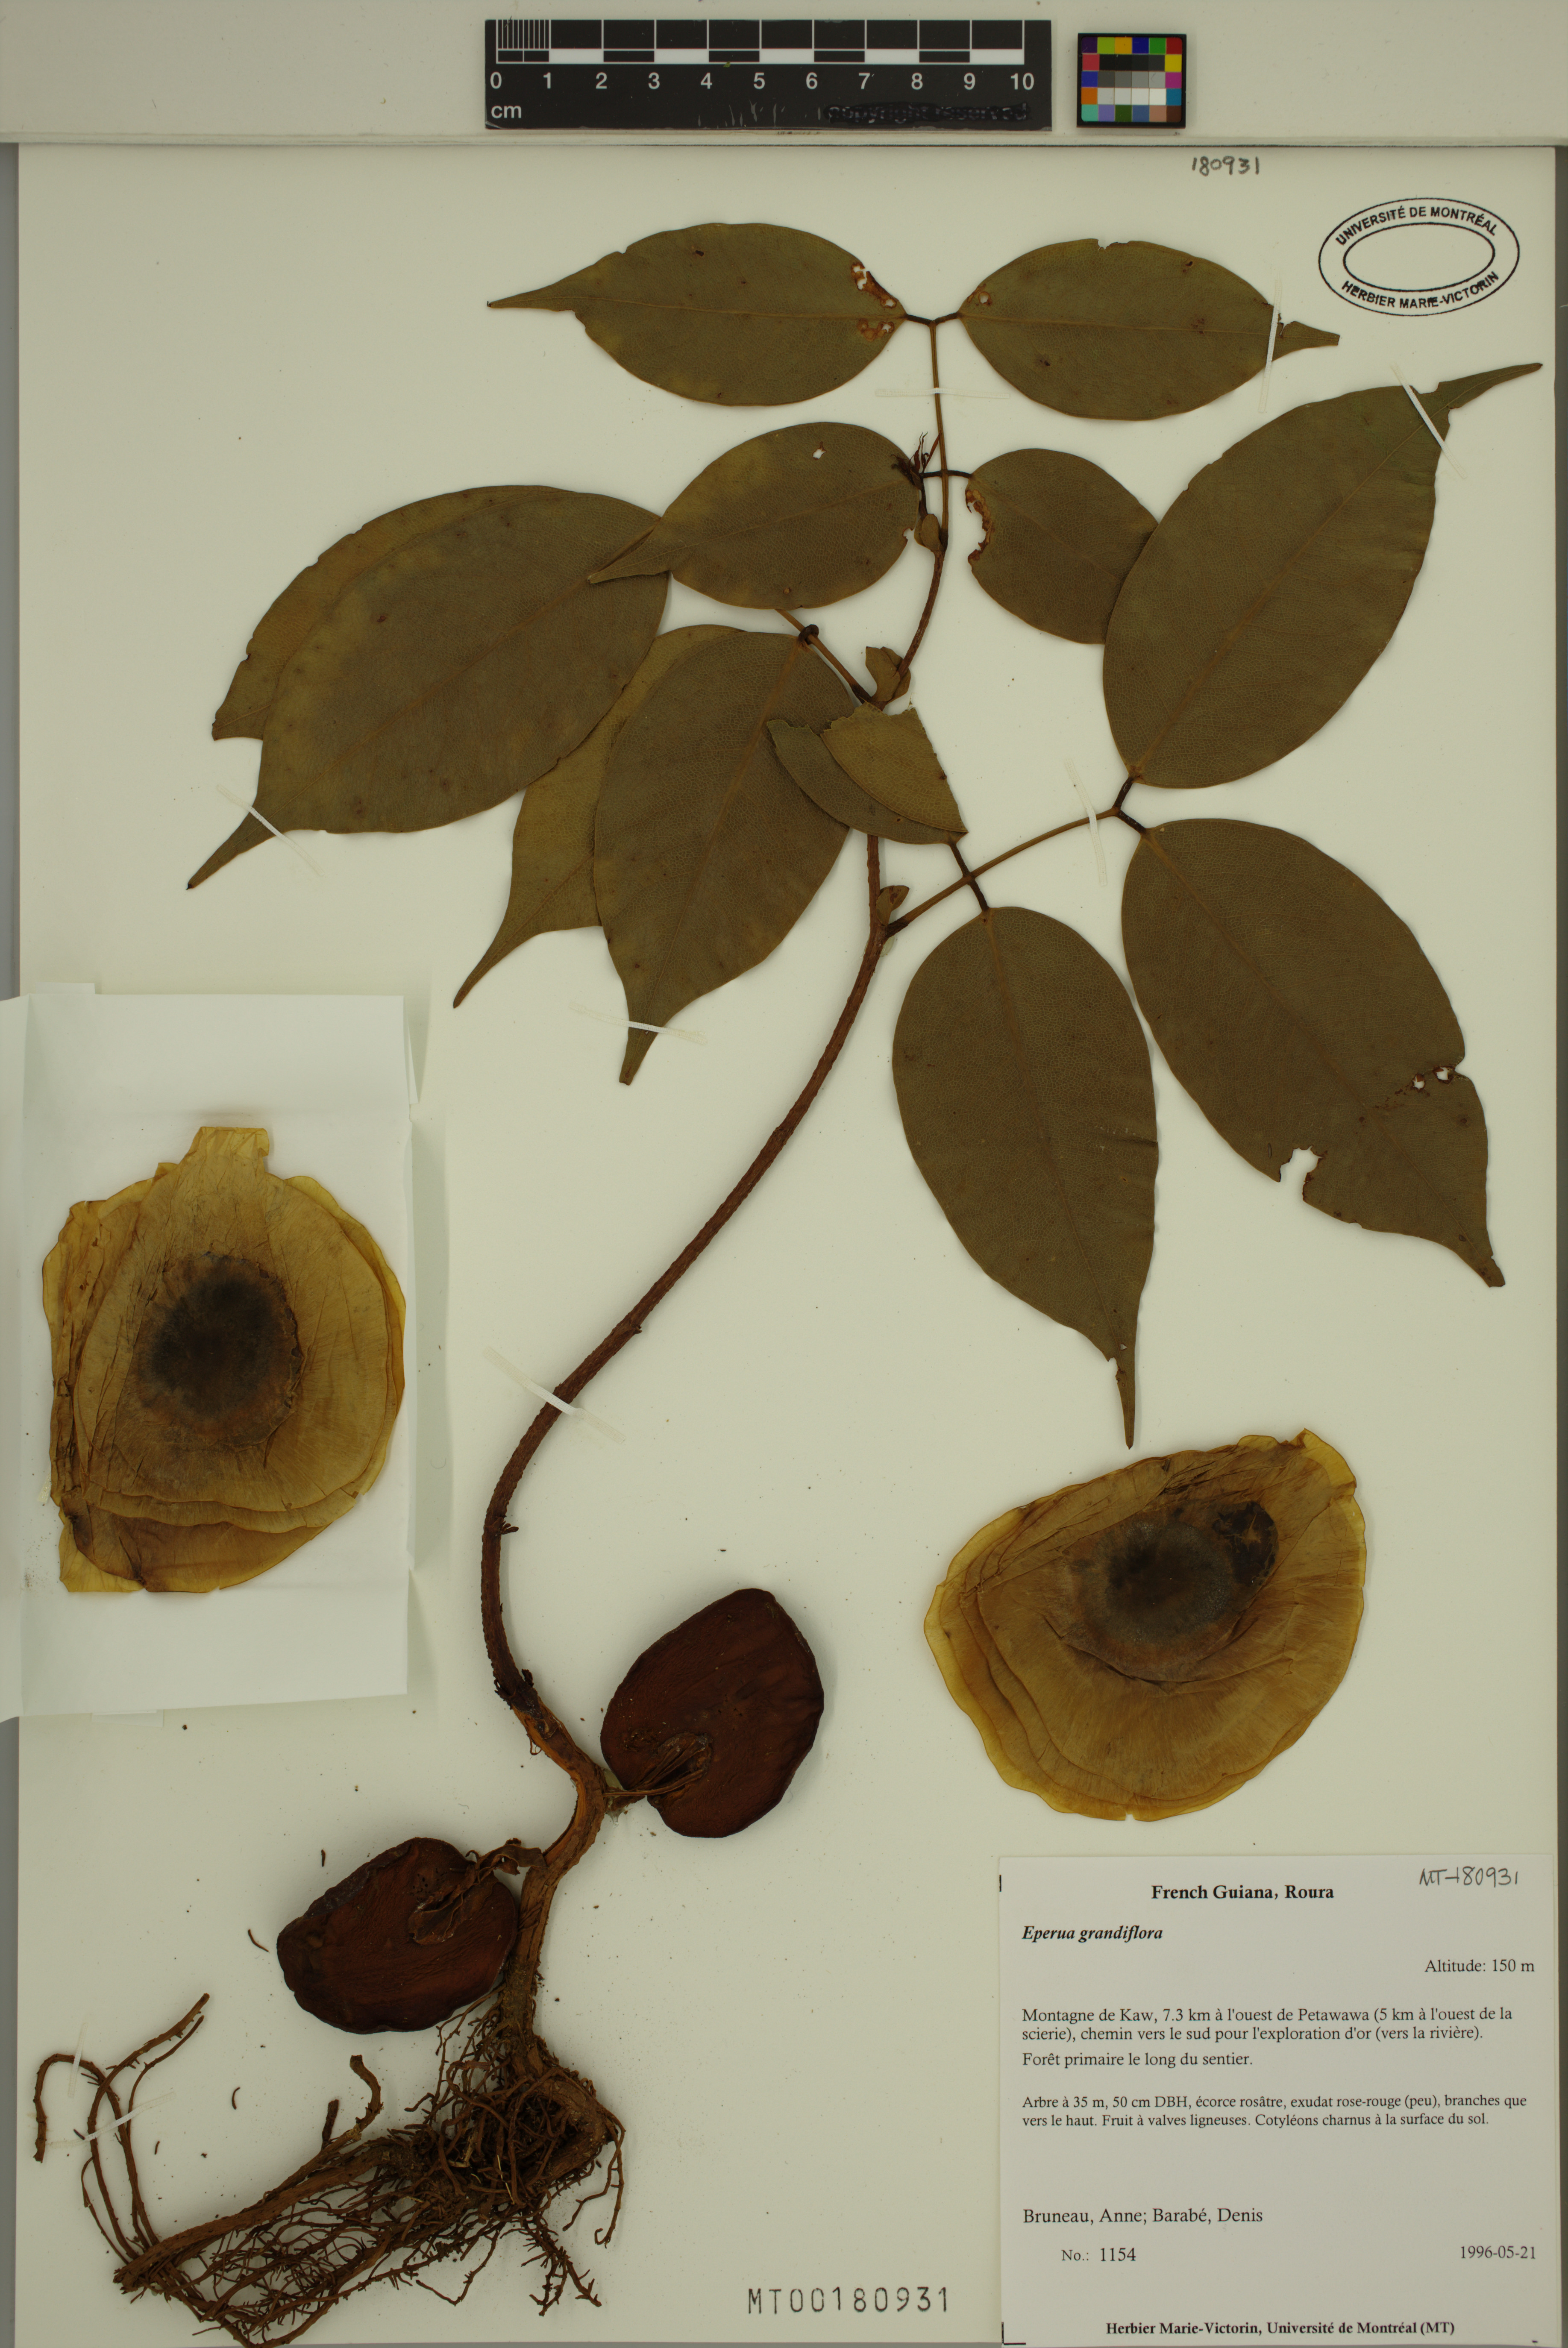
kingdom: Plantae
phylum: Tracheophyta
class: Magnoliopsida
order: Fabales
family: Fabaceae
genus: Eperua
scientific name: Eperua grandiflora
